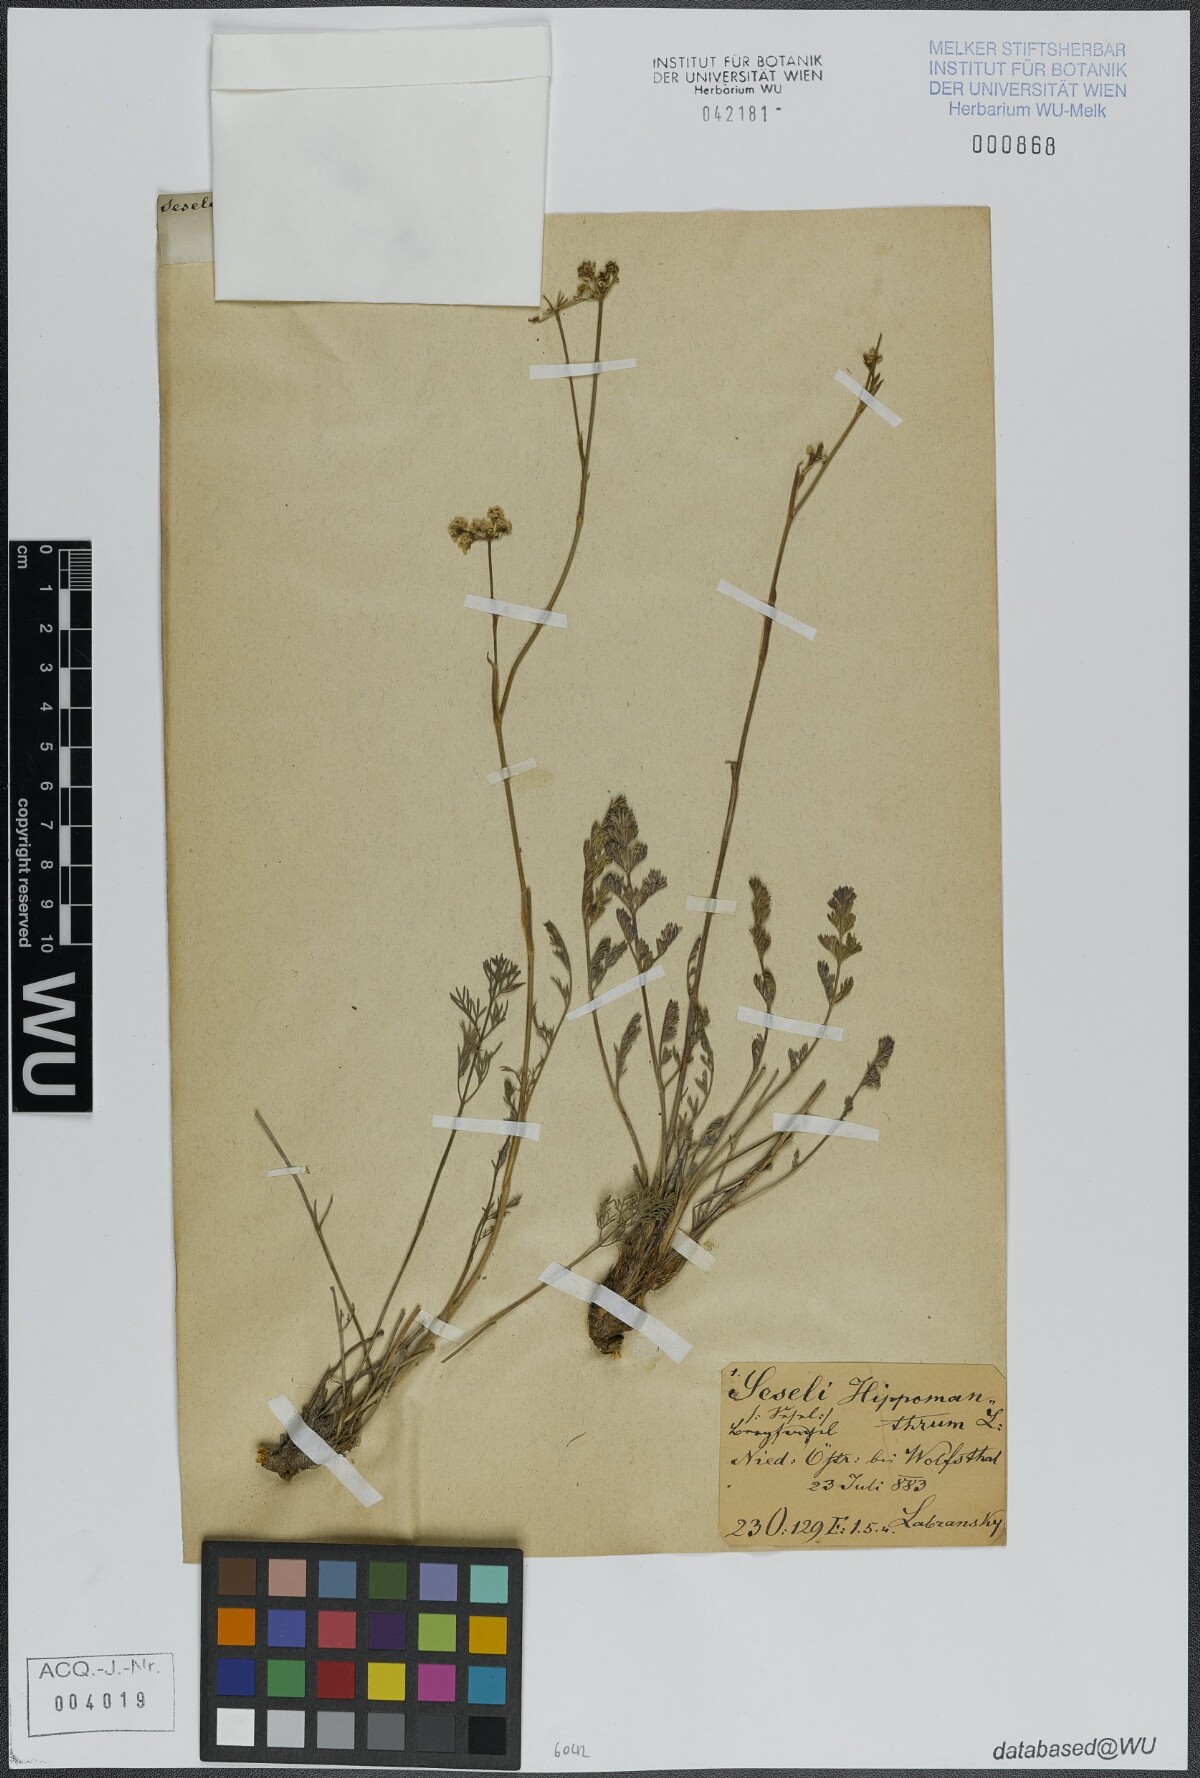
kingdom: Plantae
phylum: Tracheophyta
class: Magnoliopsida
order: Apiales
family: Apiaceae
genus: Hippomarathrum
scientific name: Hippomarathrum vulgare
